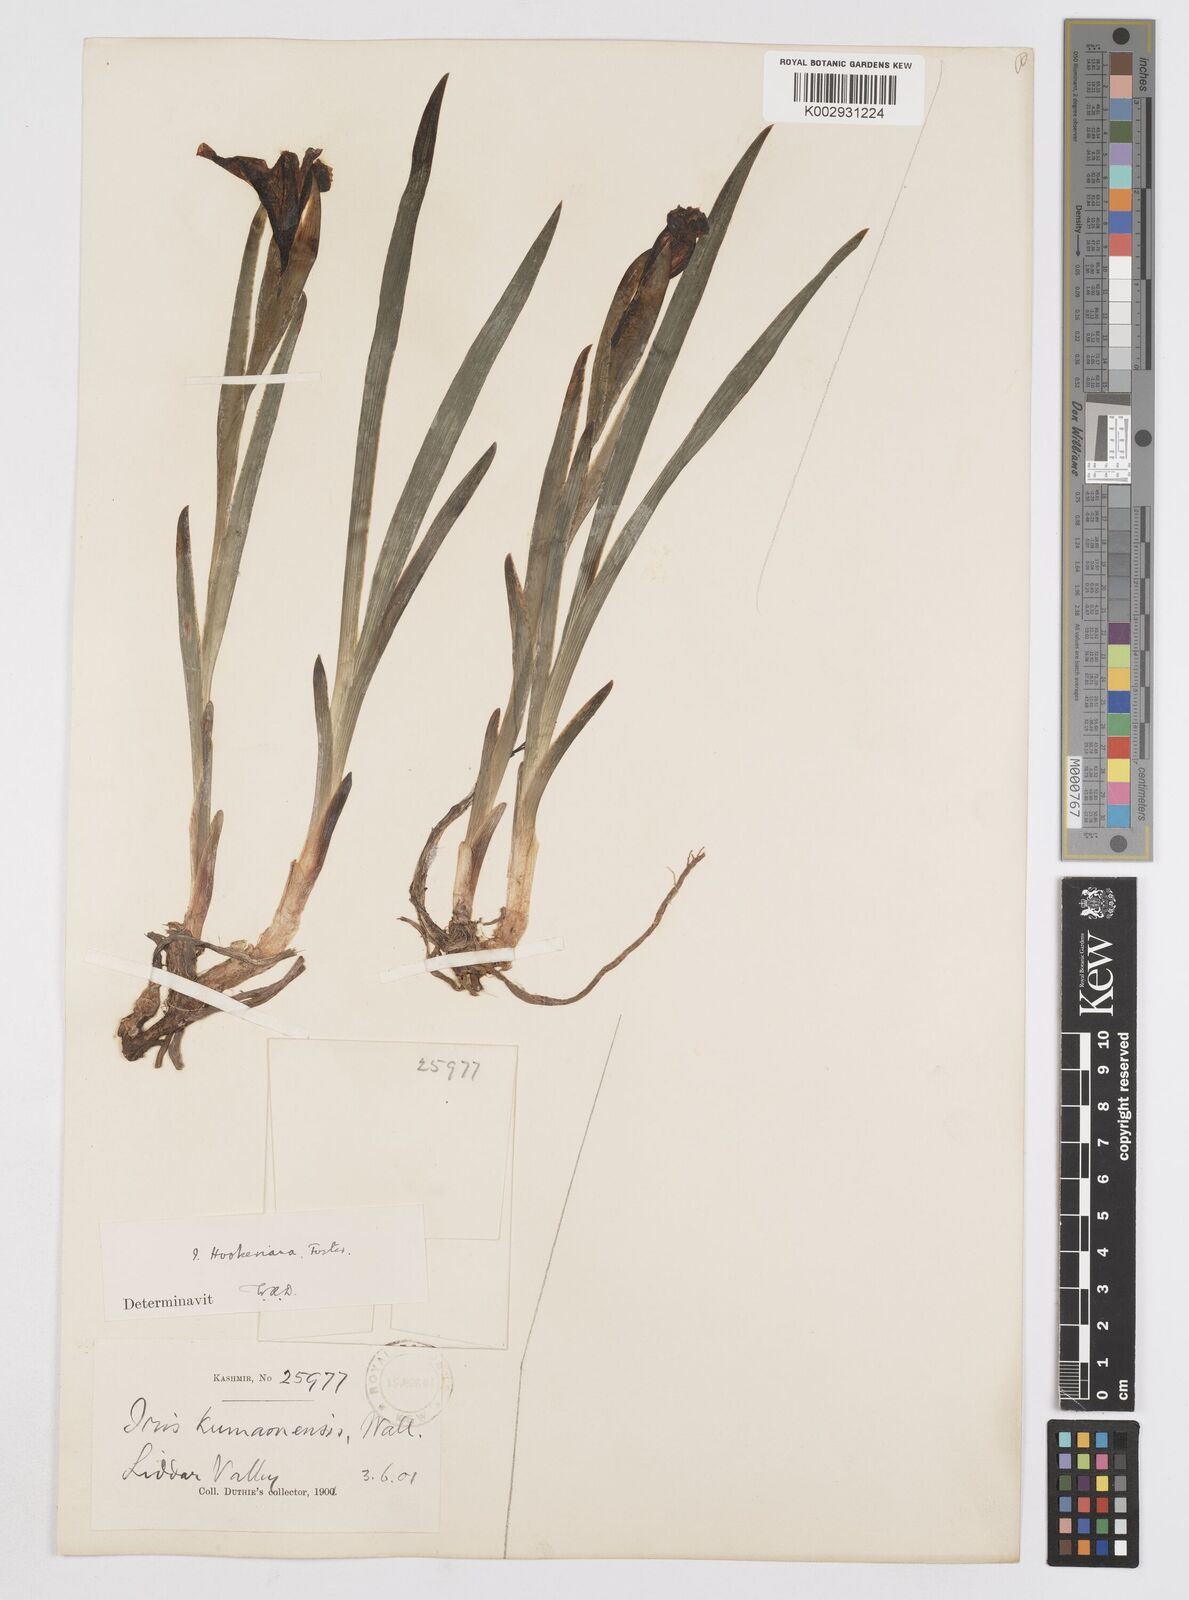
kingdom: Plantae
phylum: Tracheophyta
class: Liliopsida
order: Asparagales
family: Iridaceae
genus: Iris
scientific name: Iris hookeriana
